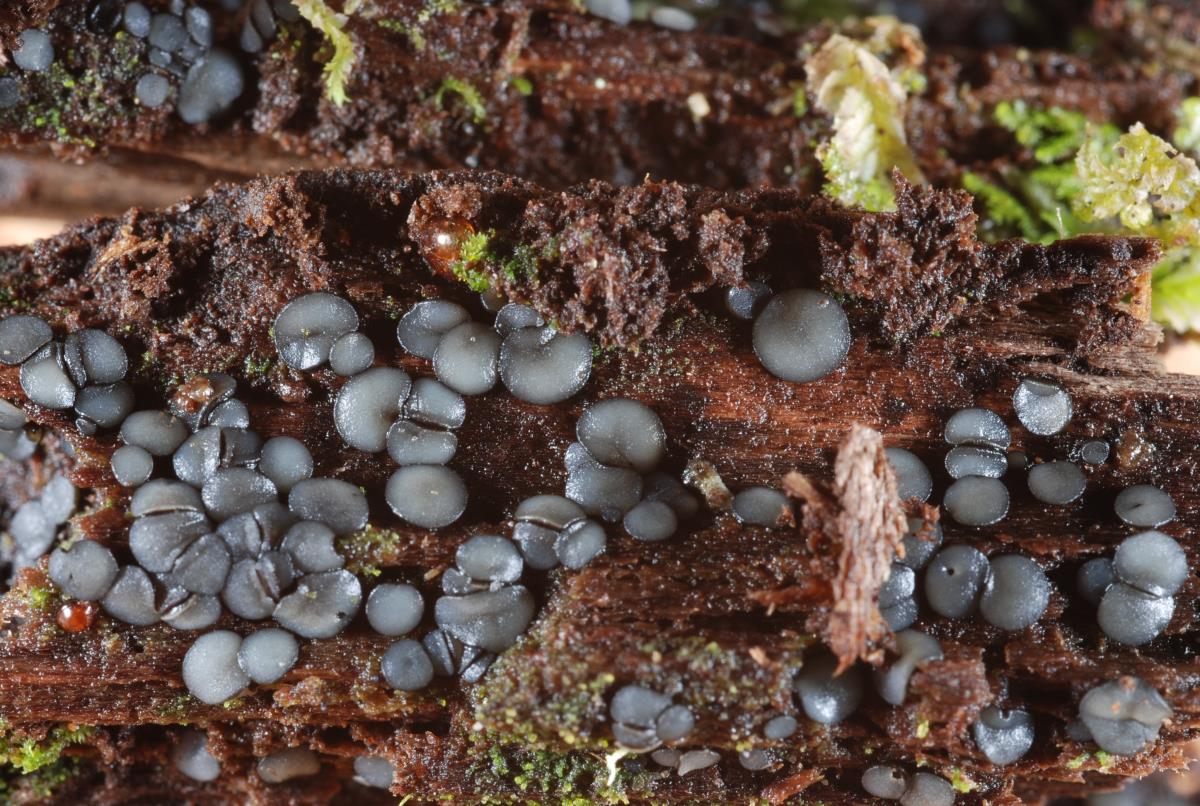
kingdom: Fungi
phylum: Ascomycota
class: Leotiomycetes
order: Helotiales
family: Gelatinodiscaceae
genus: Neobulgaria
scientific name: Neobulgaria alba
